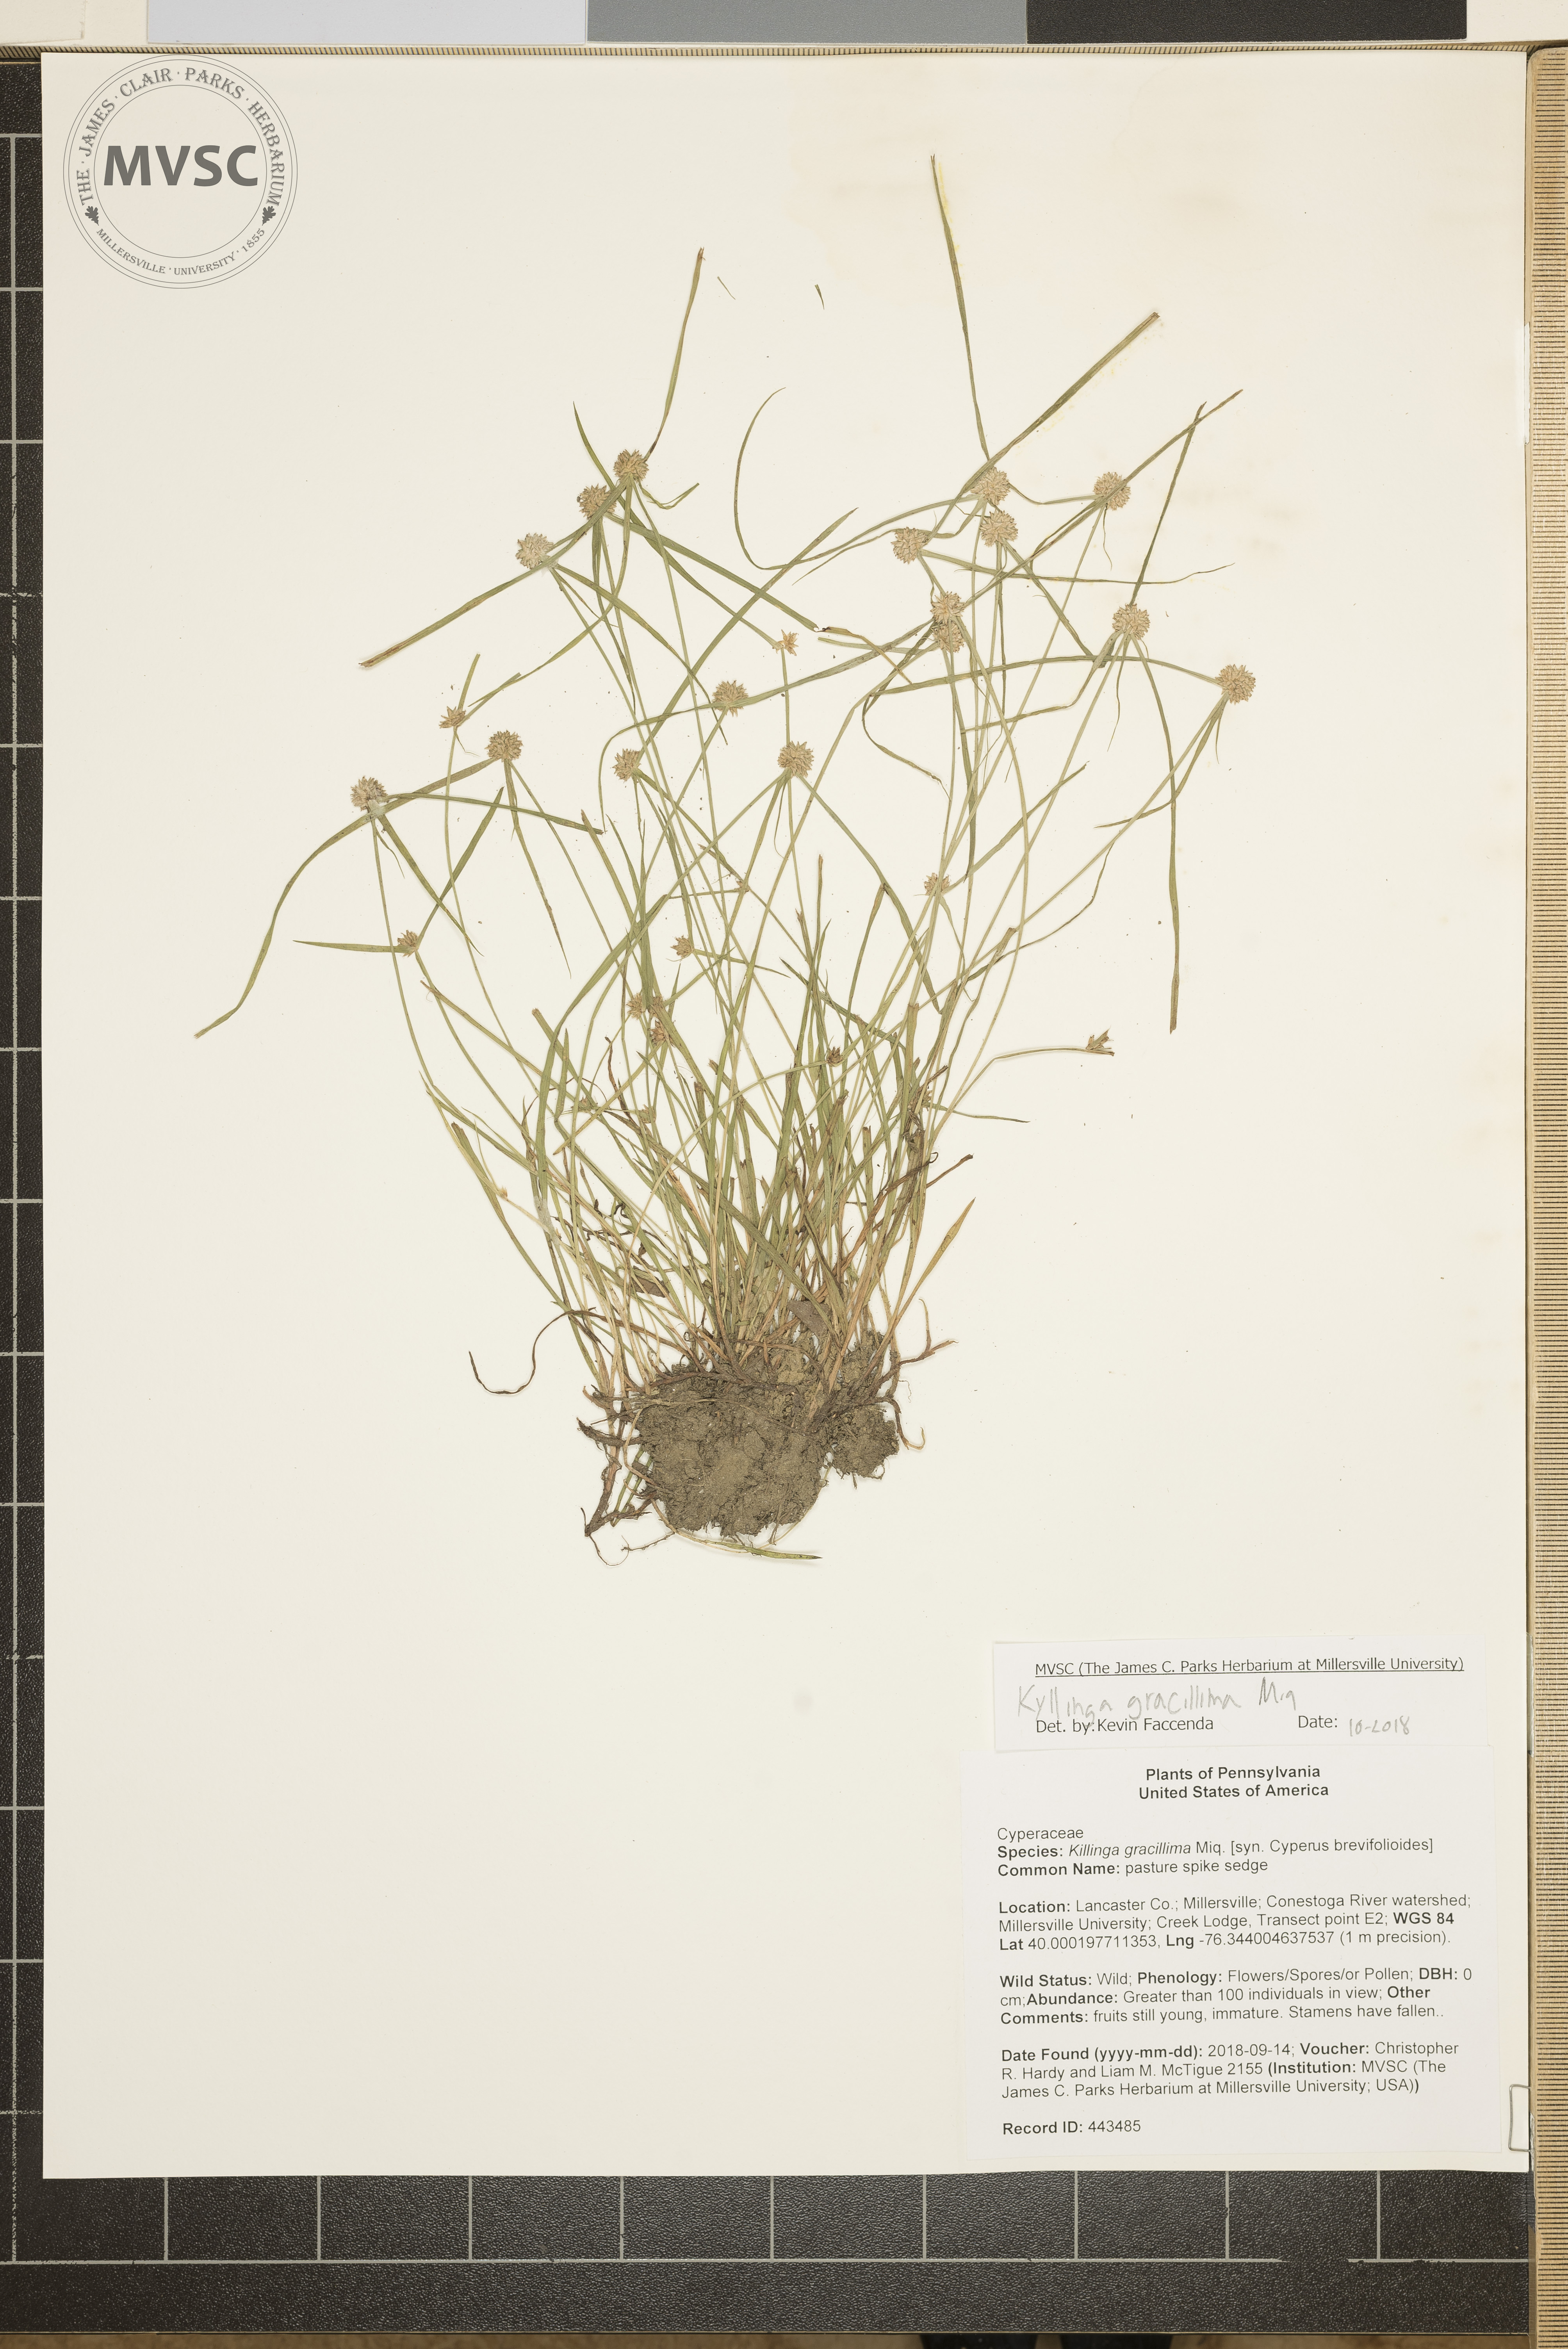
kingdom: Plantae
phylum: Tracheophyta
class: Liliopsida
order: Poales
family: Cyperaceae
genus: Cyperus
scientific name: Cyperus brevifolioides
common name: pasture spike sedge
